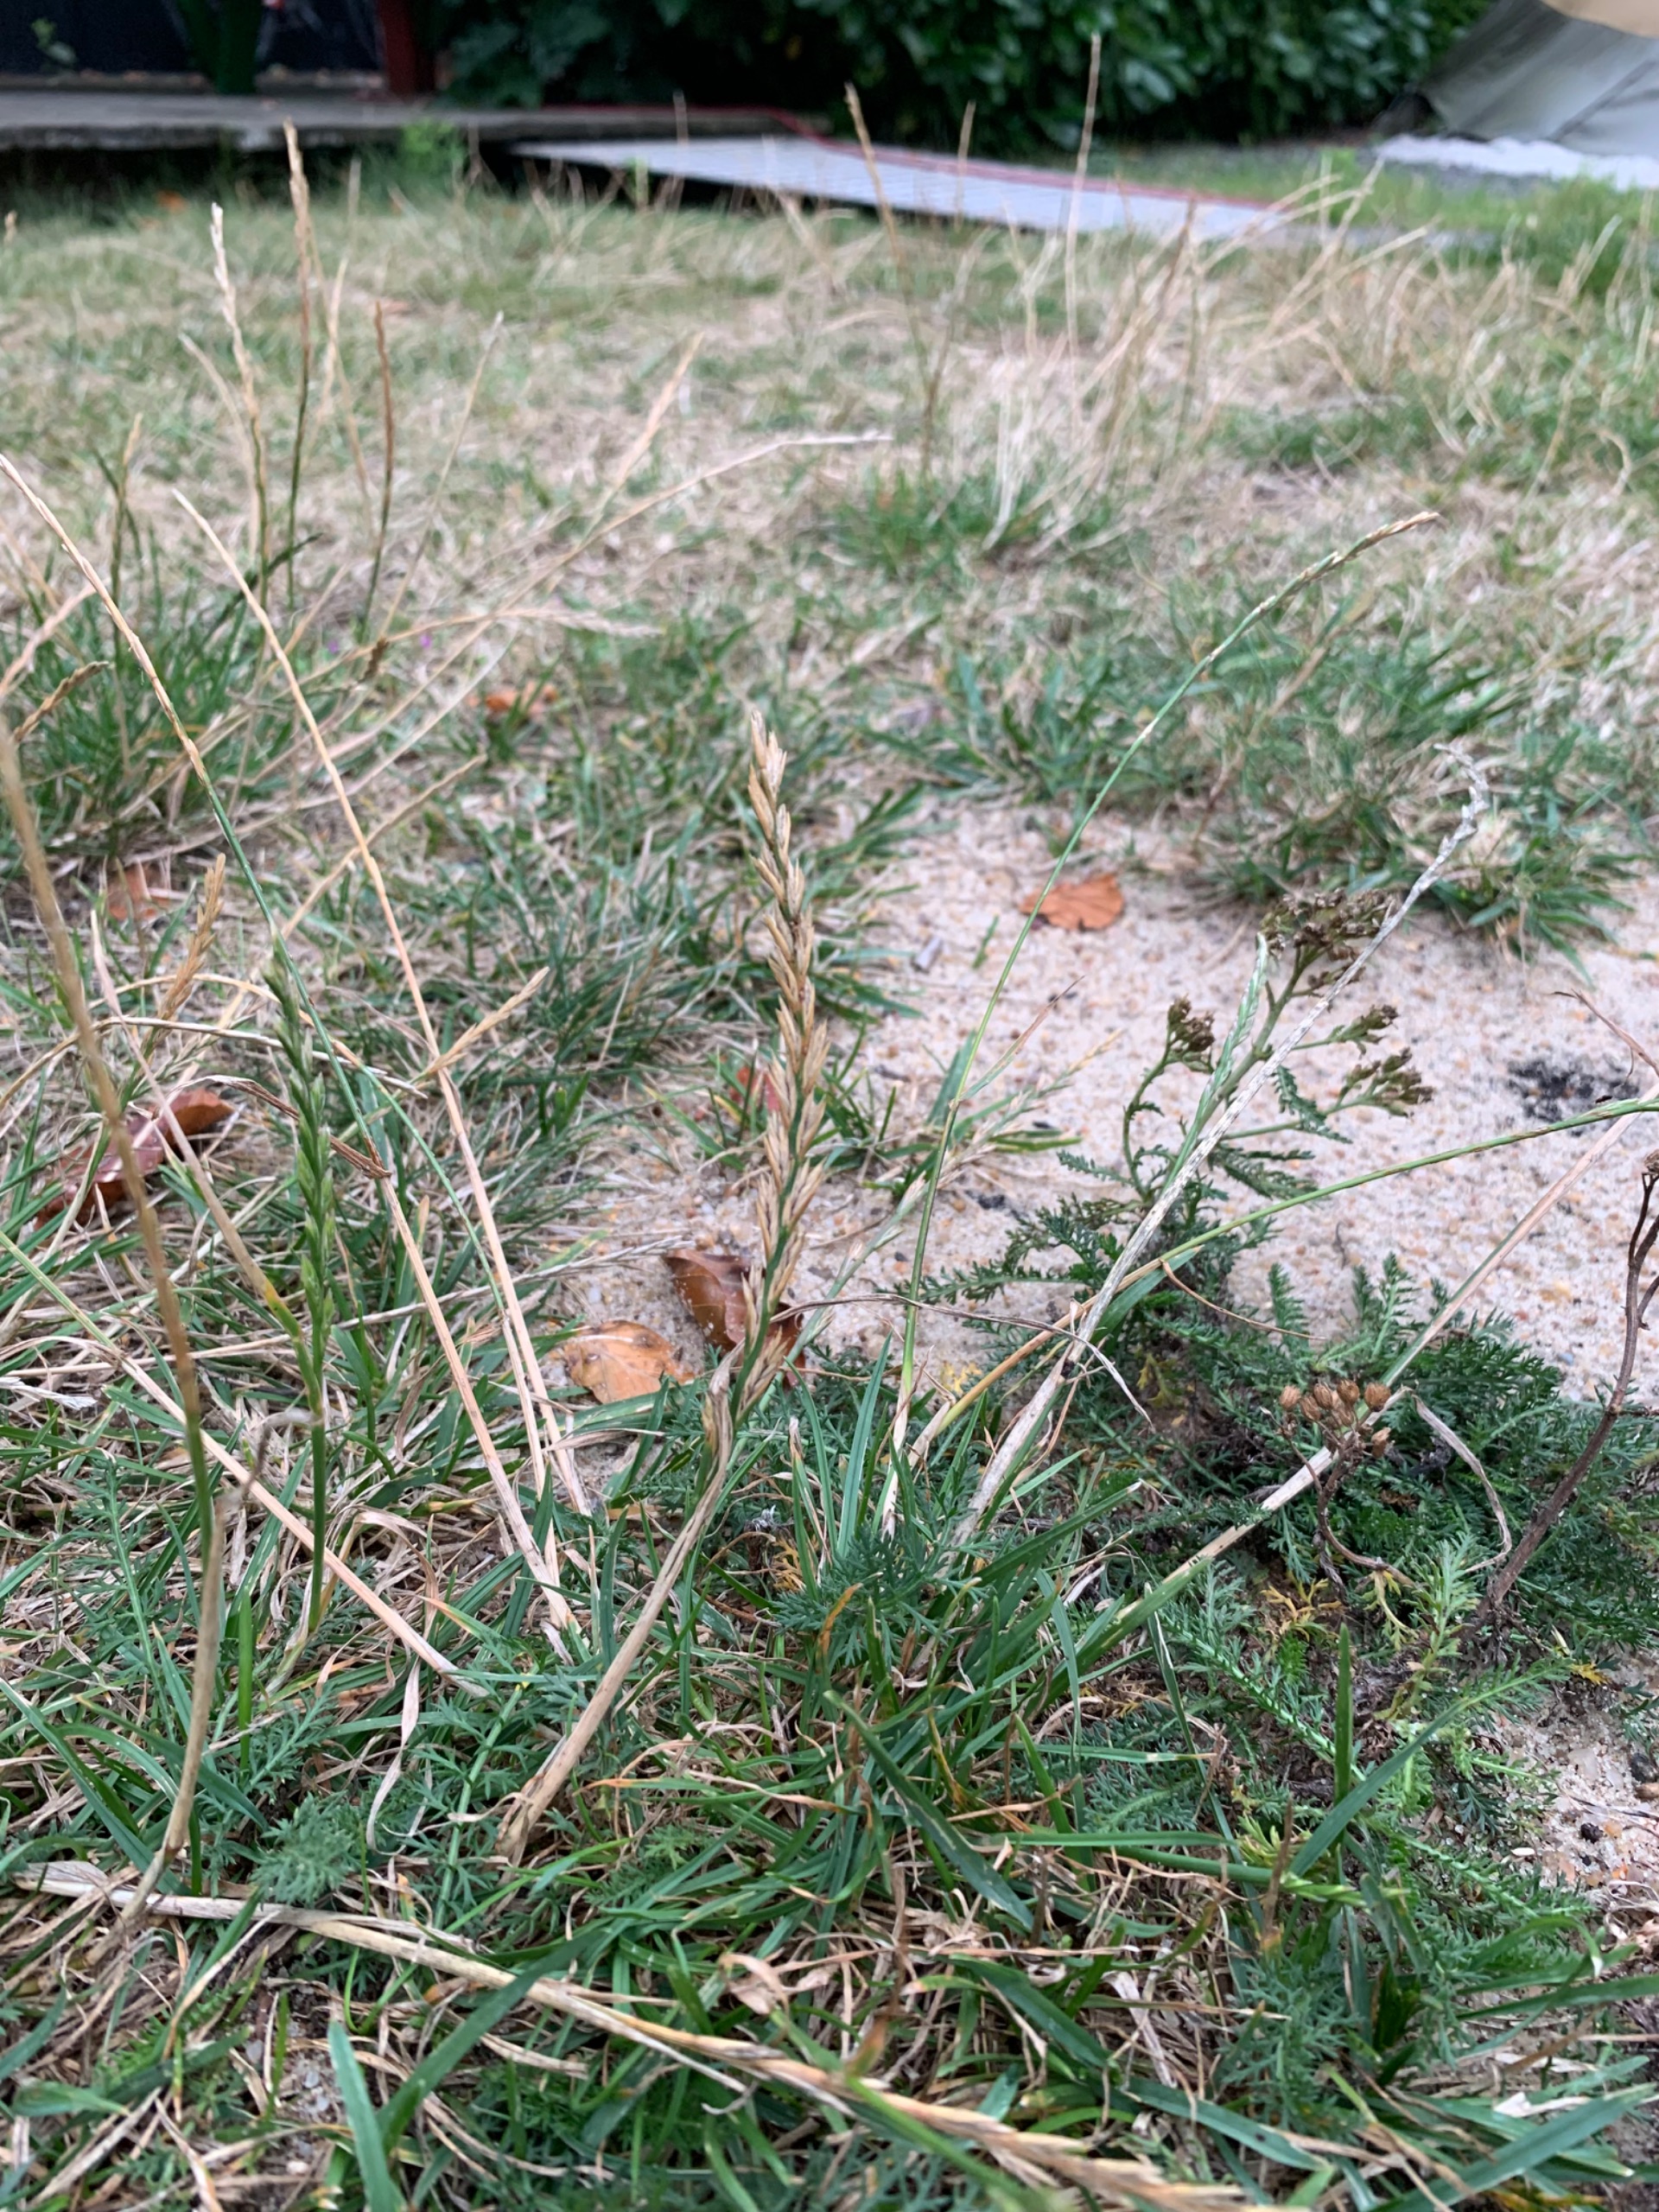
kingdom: Plantae
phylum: Tracheophyta
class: Liliopsida
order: Poales
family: Poaceae
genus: Lolium
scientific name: Lolium perenne
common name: Almindelig rajgræs
